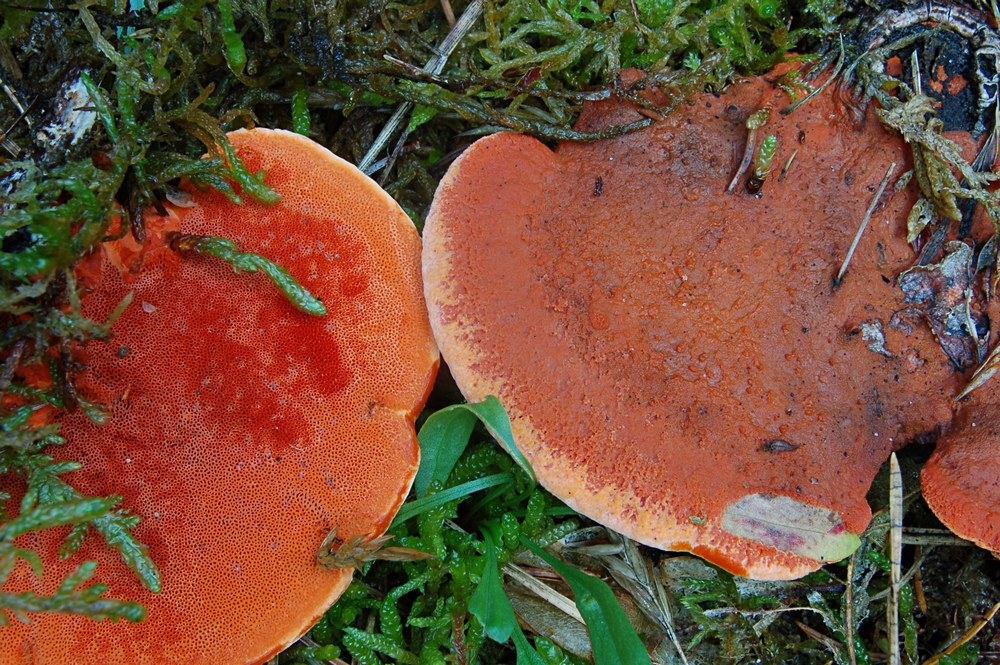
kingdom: Fungi
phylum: Basidiomycota
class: Agaricomycetes
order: Polyporales
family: Polyporaceae
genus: Trametes
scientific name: Trametes cinnabarina
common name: cinnoberporesvamp
